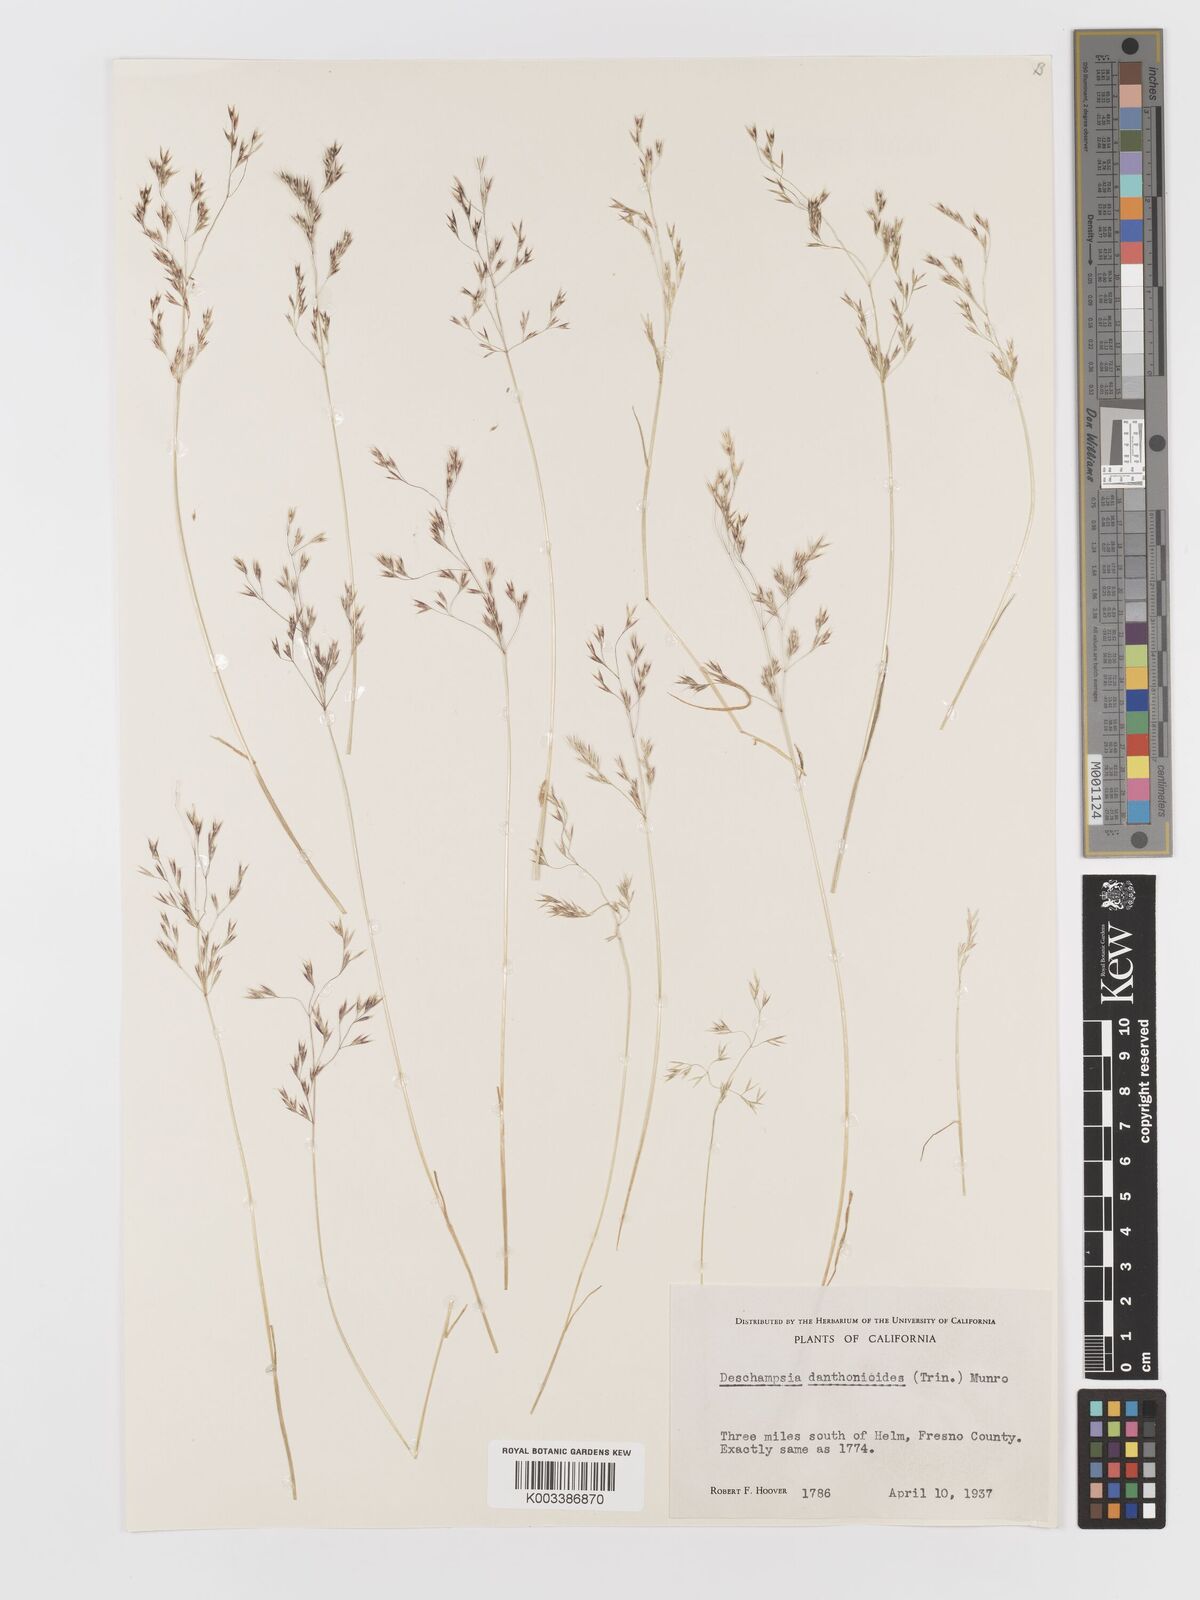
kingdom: Plantae
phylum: Tracheophyta
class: Liliopsida
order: Poales
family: Poaceae
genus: Deschampsia
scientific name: Deschampsia danthonioides
